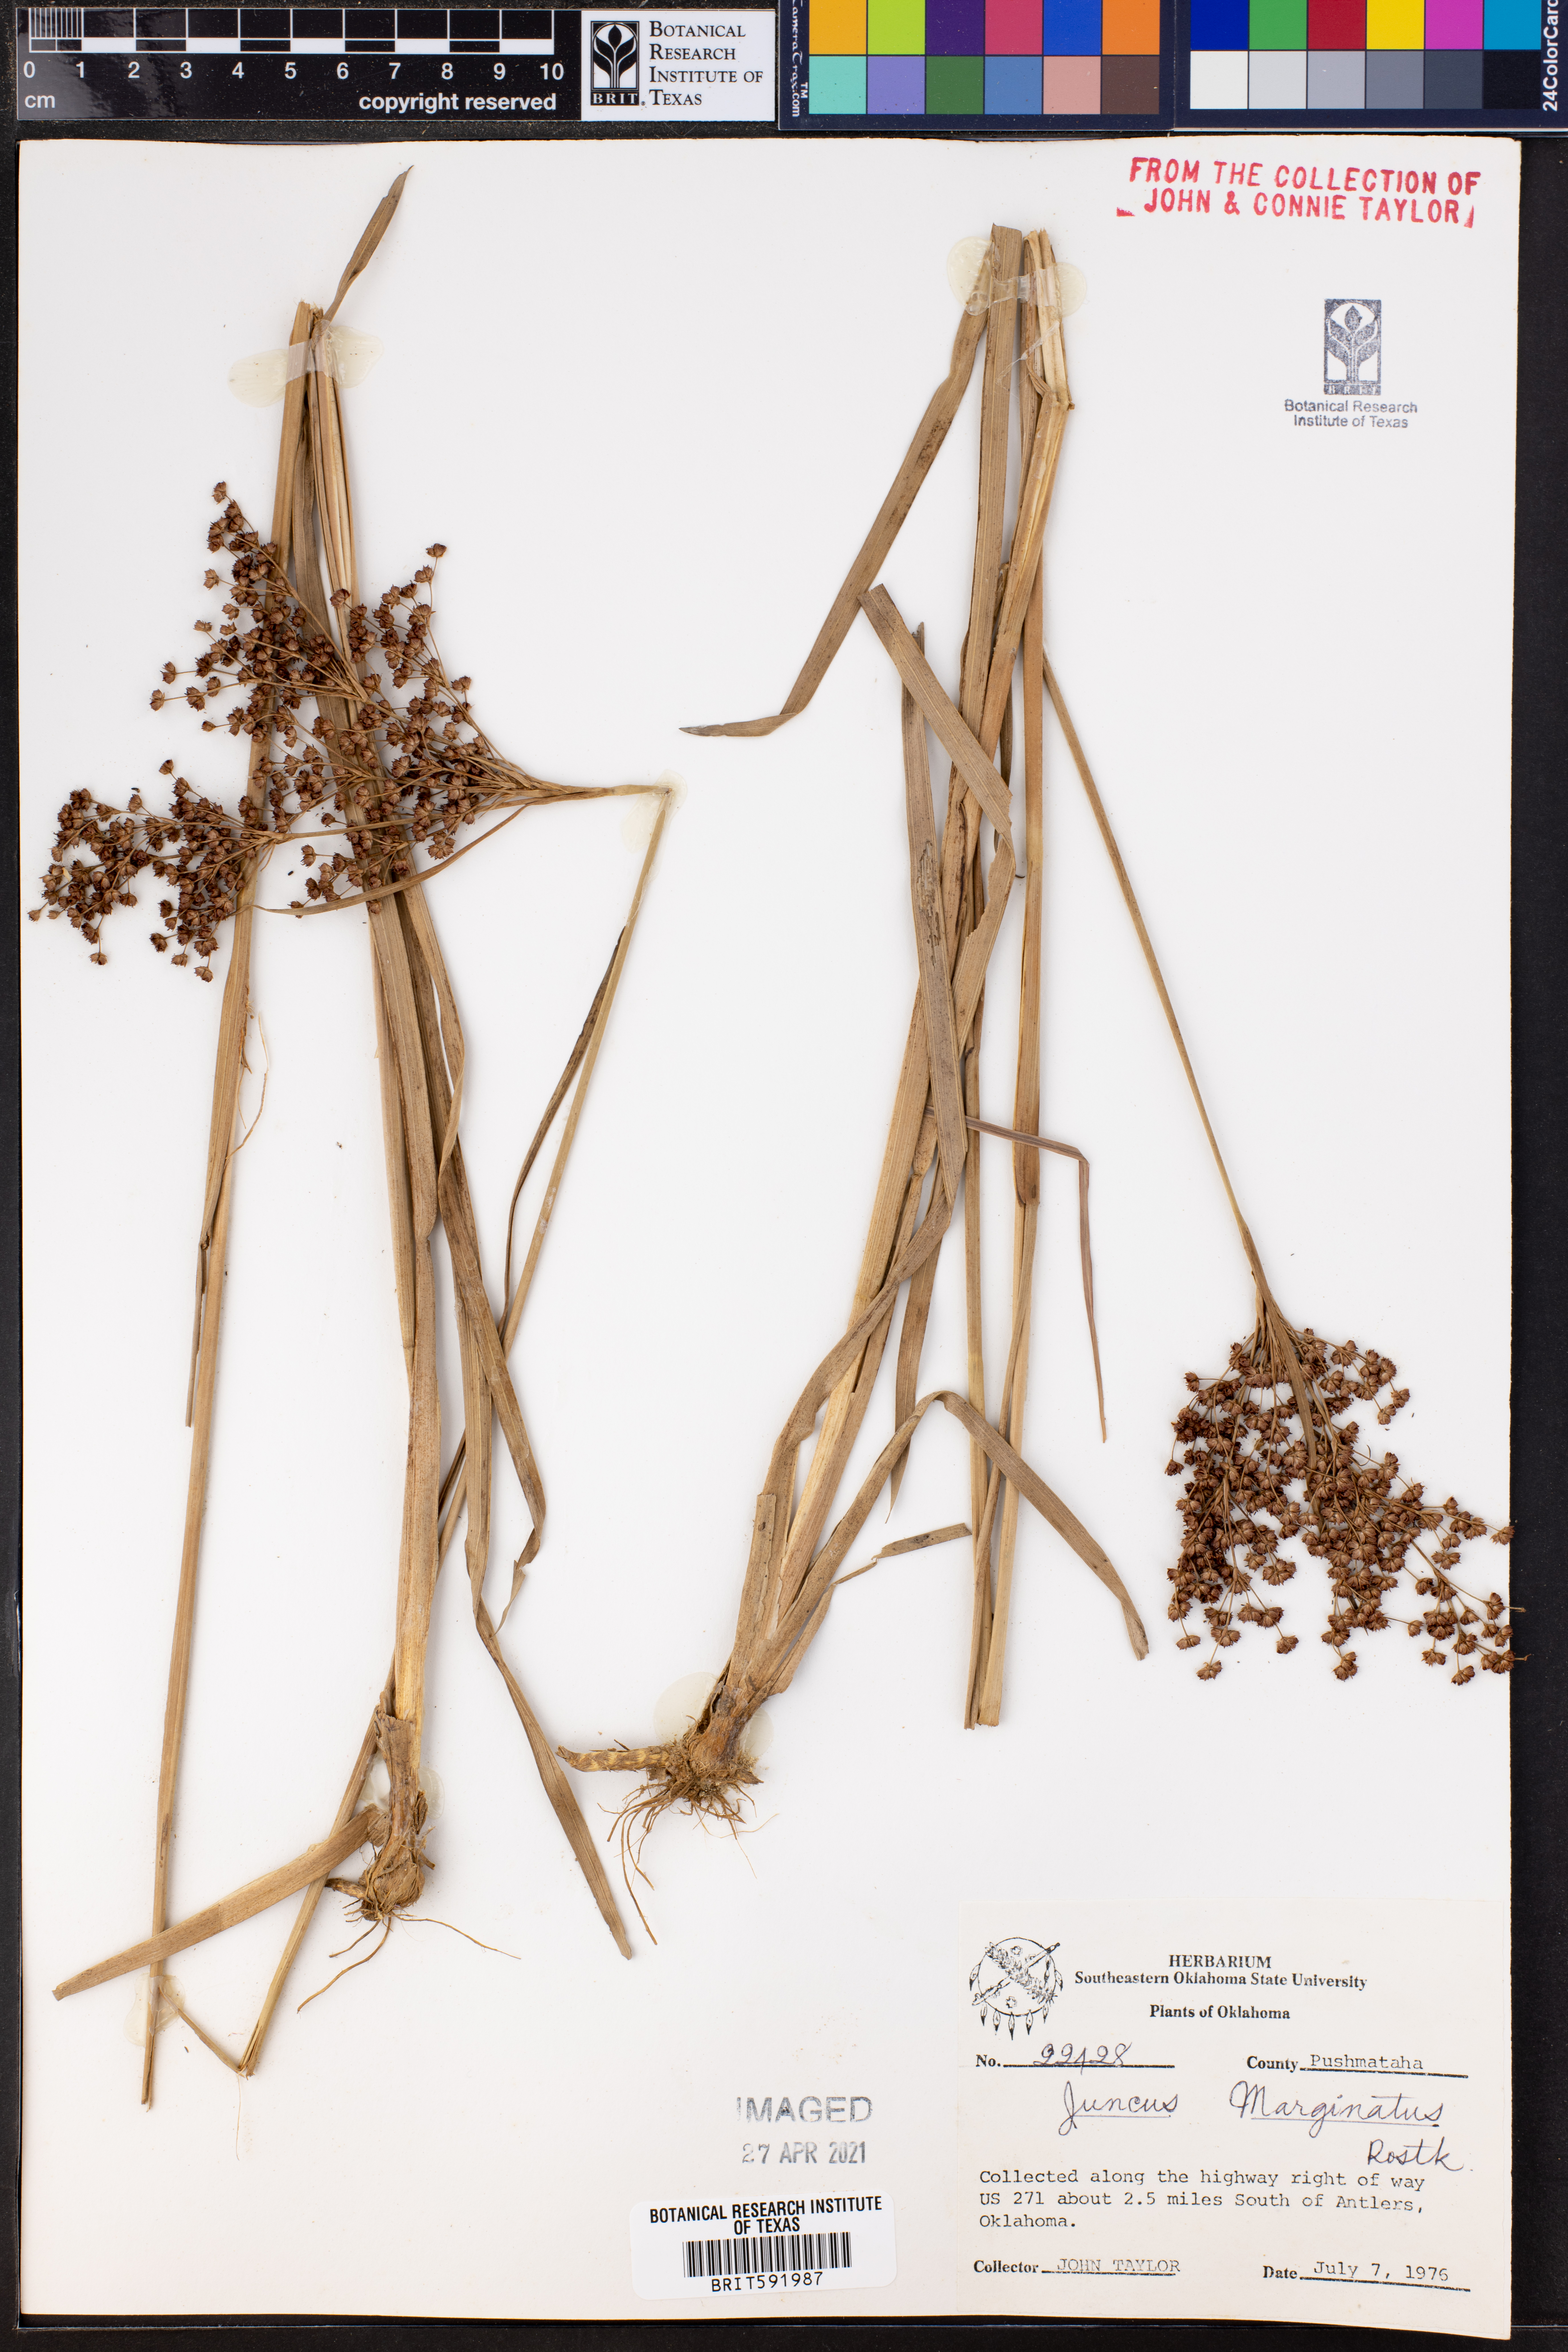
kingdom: Plantae
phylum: Tracheophyta
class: Liliopsida
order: Poales
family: Juncaceae
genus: Juncus
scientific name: Juncus marginatus
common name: Grass-leaf rush
